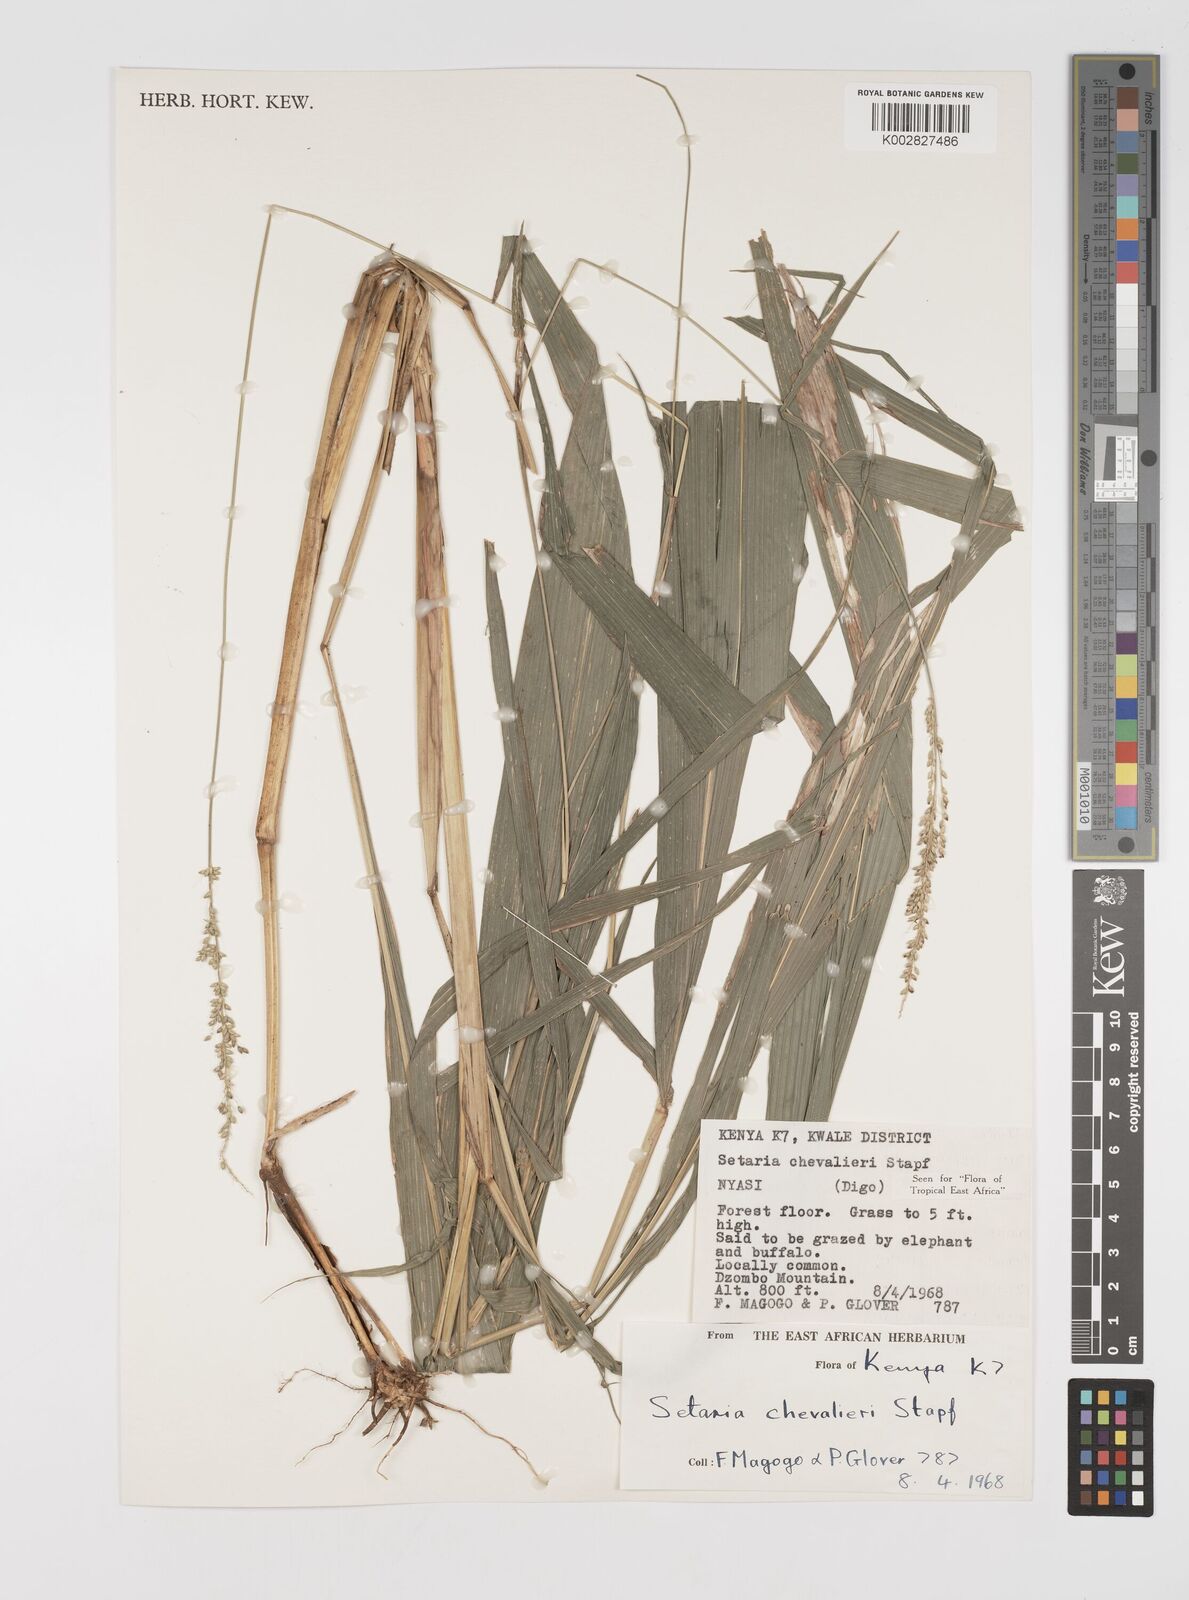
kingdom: Plantae
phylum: Tracheophyta
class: Liliopsida
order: Poales
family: Poaceae
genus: Setaria
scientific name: Setaria megaphylla
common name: Bigleaf bristlegrass
